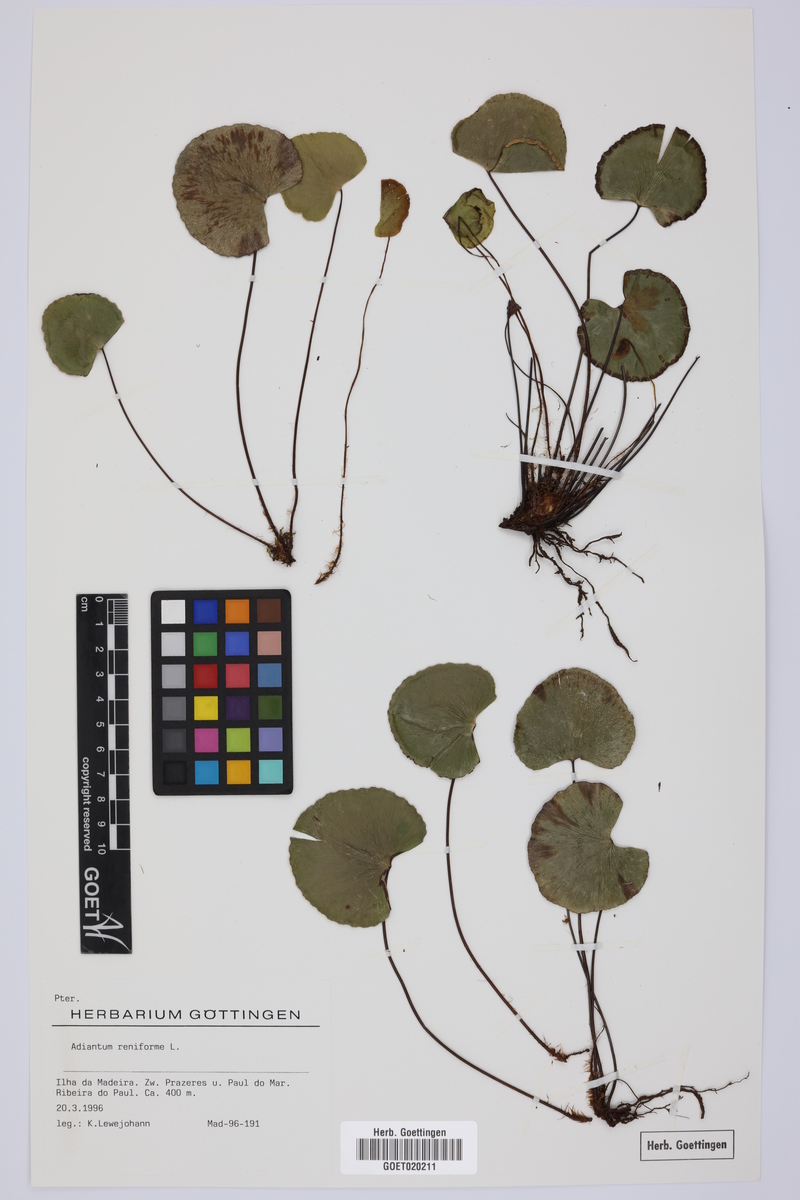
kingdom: Plantae
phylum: Tracheophyta
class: Polypodiopsida
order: Polypodiales
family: Pteridaceae
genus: Adiantum
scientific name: Adiantum reniforme
